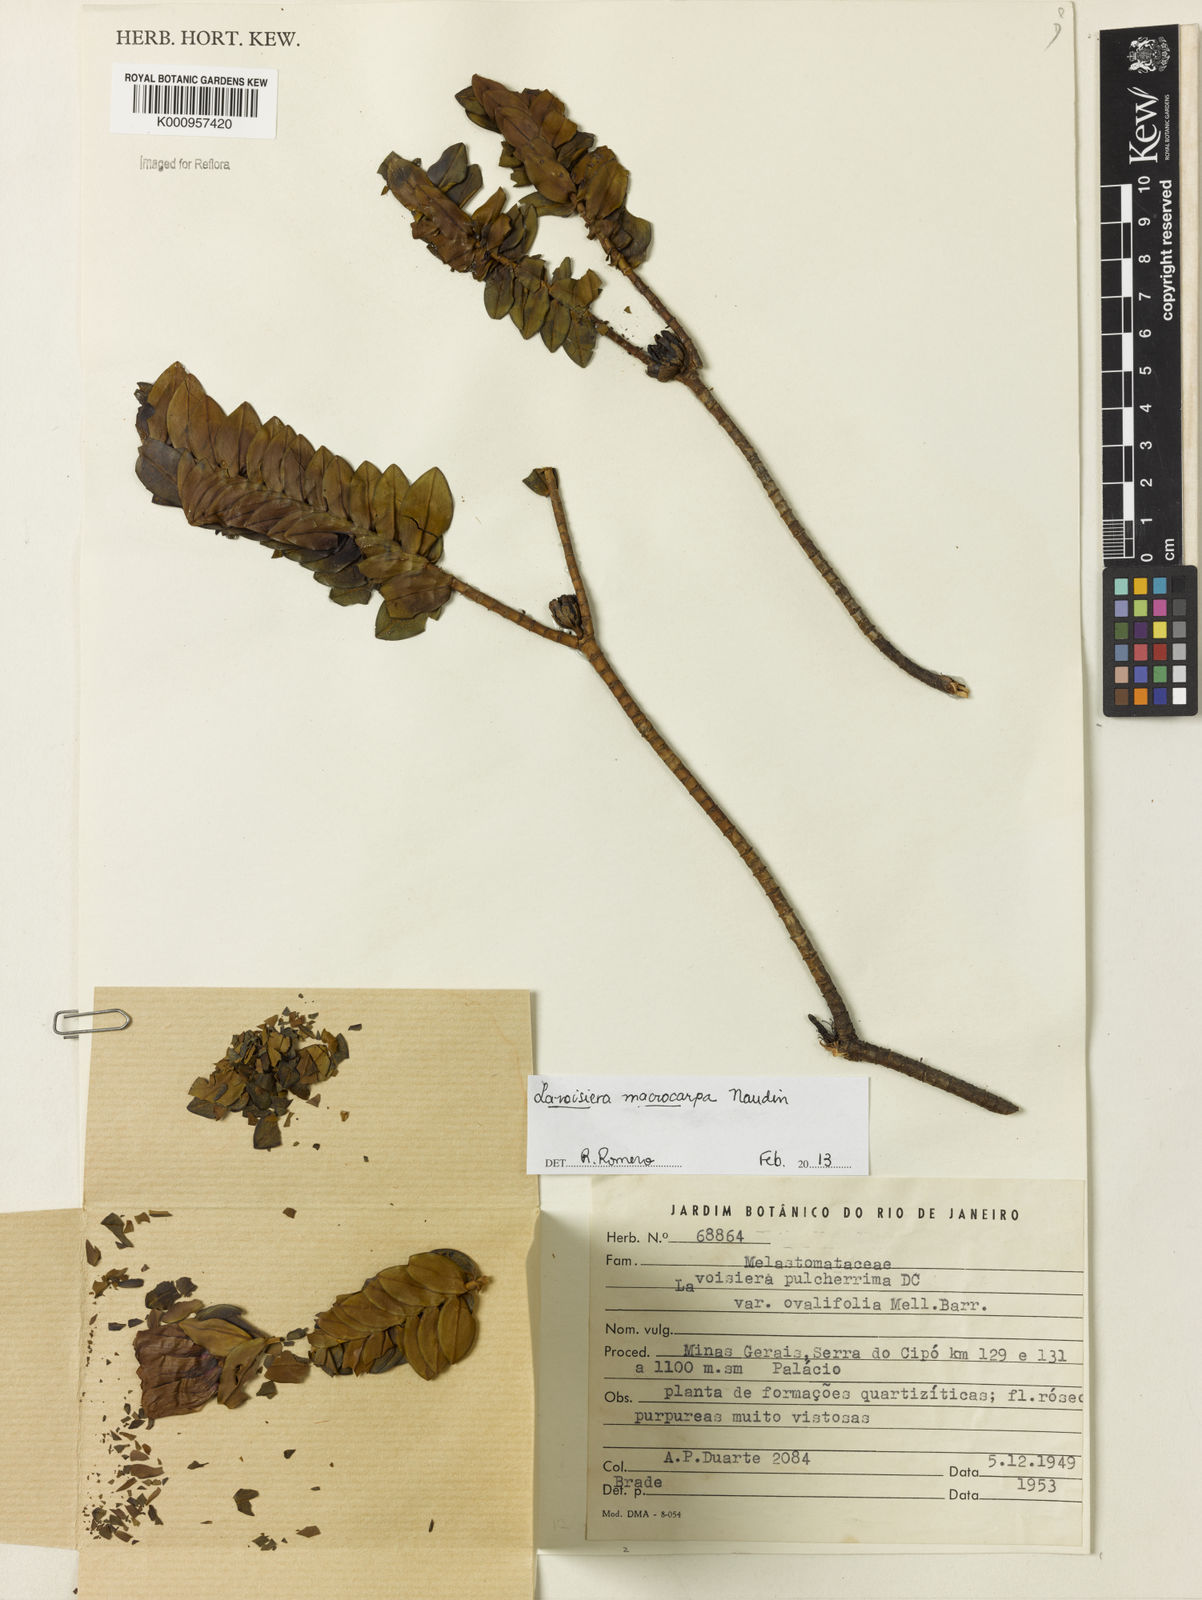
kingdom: Plantae
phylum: Tracheophyta
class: Magnoliopsida
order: Myrtales
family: Melastomataceae
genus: Microlicia
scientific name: Microlicia macrocarpa
